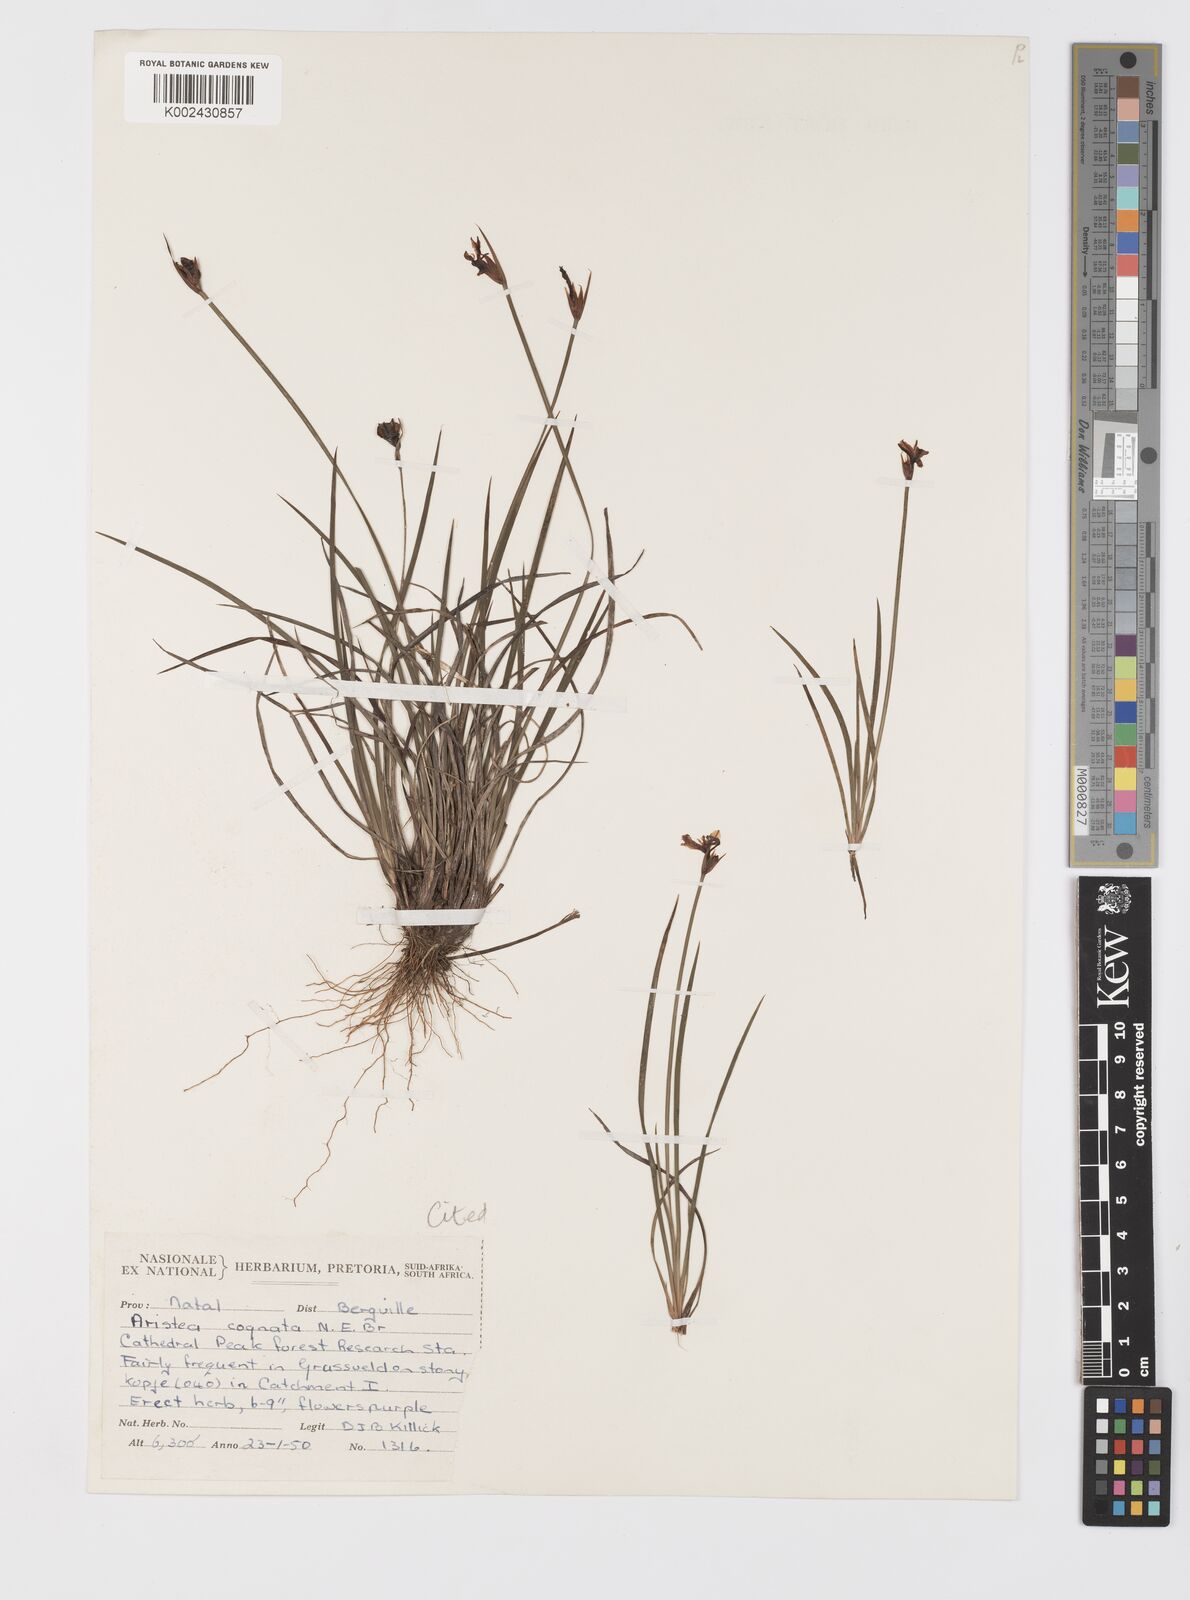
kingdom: Plantae
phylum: Tracheophyta
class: Liliopsida
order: Asparagales
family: Iridaceae
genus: Aristea
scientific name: Aristea abyssinica
